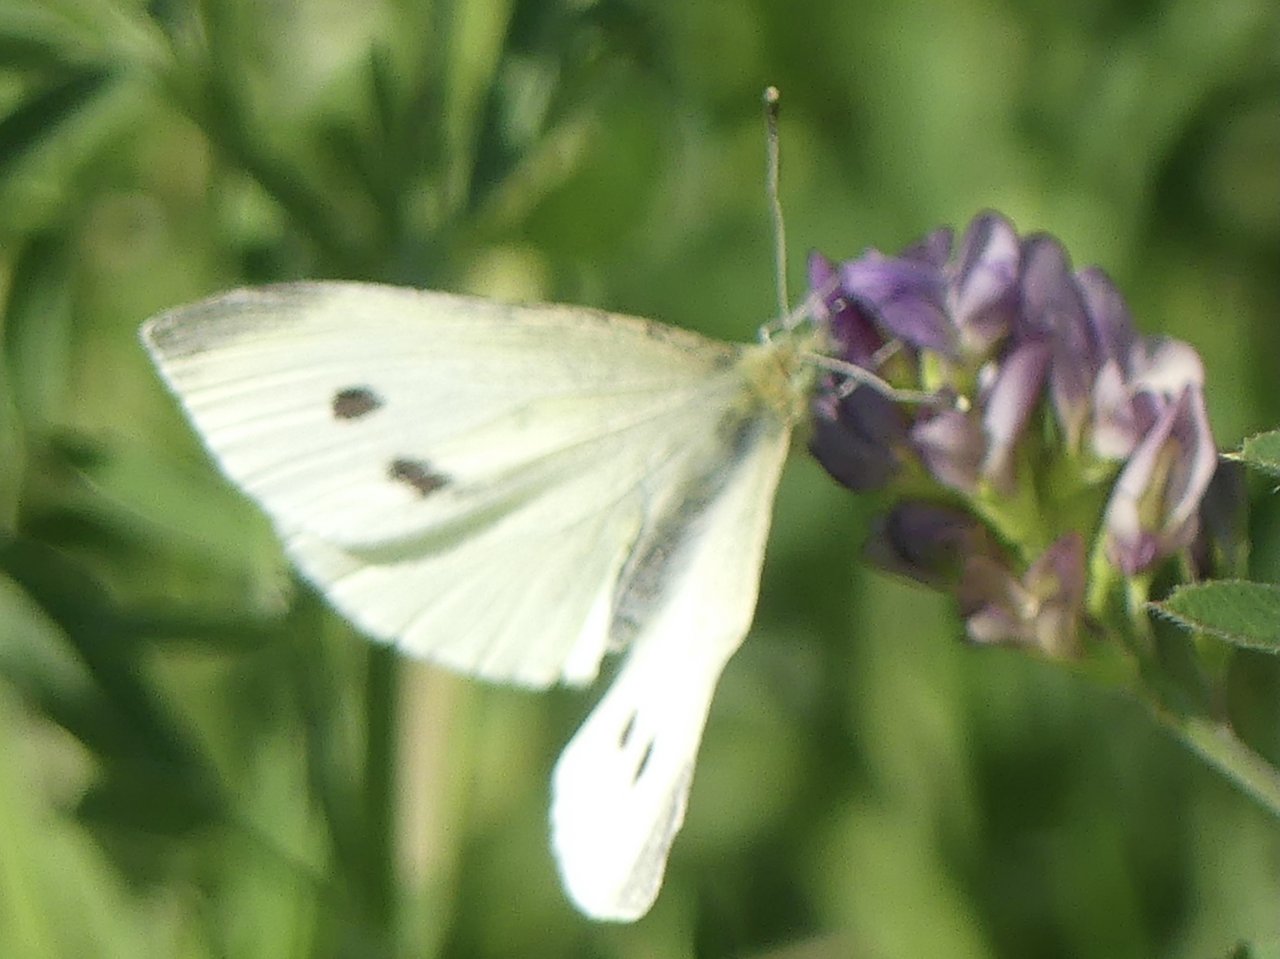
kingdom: Animalia
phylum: Arthropoda
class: Insecta
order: Lepidoptera
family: Pieridae
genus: Pieris
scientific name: Pieris rapae
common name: Cabbage White
